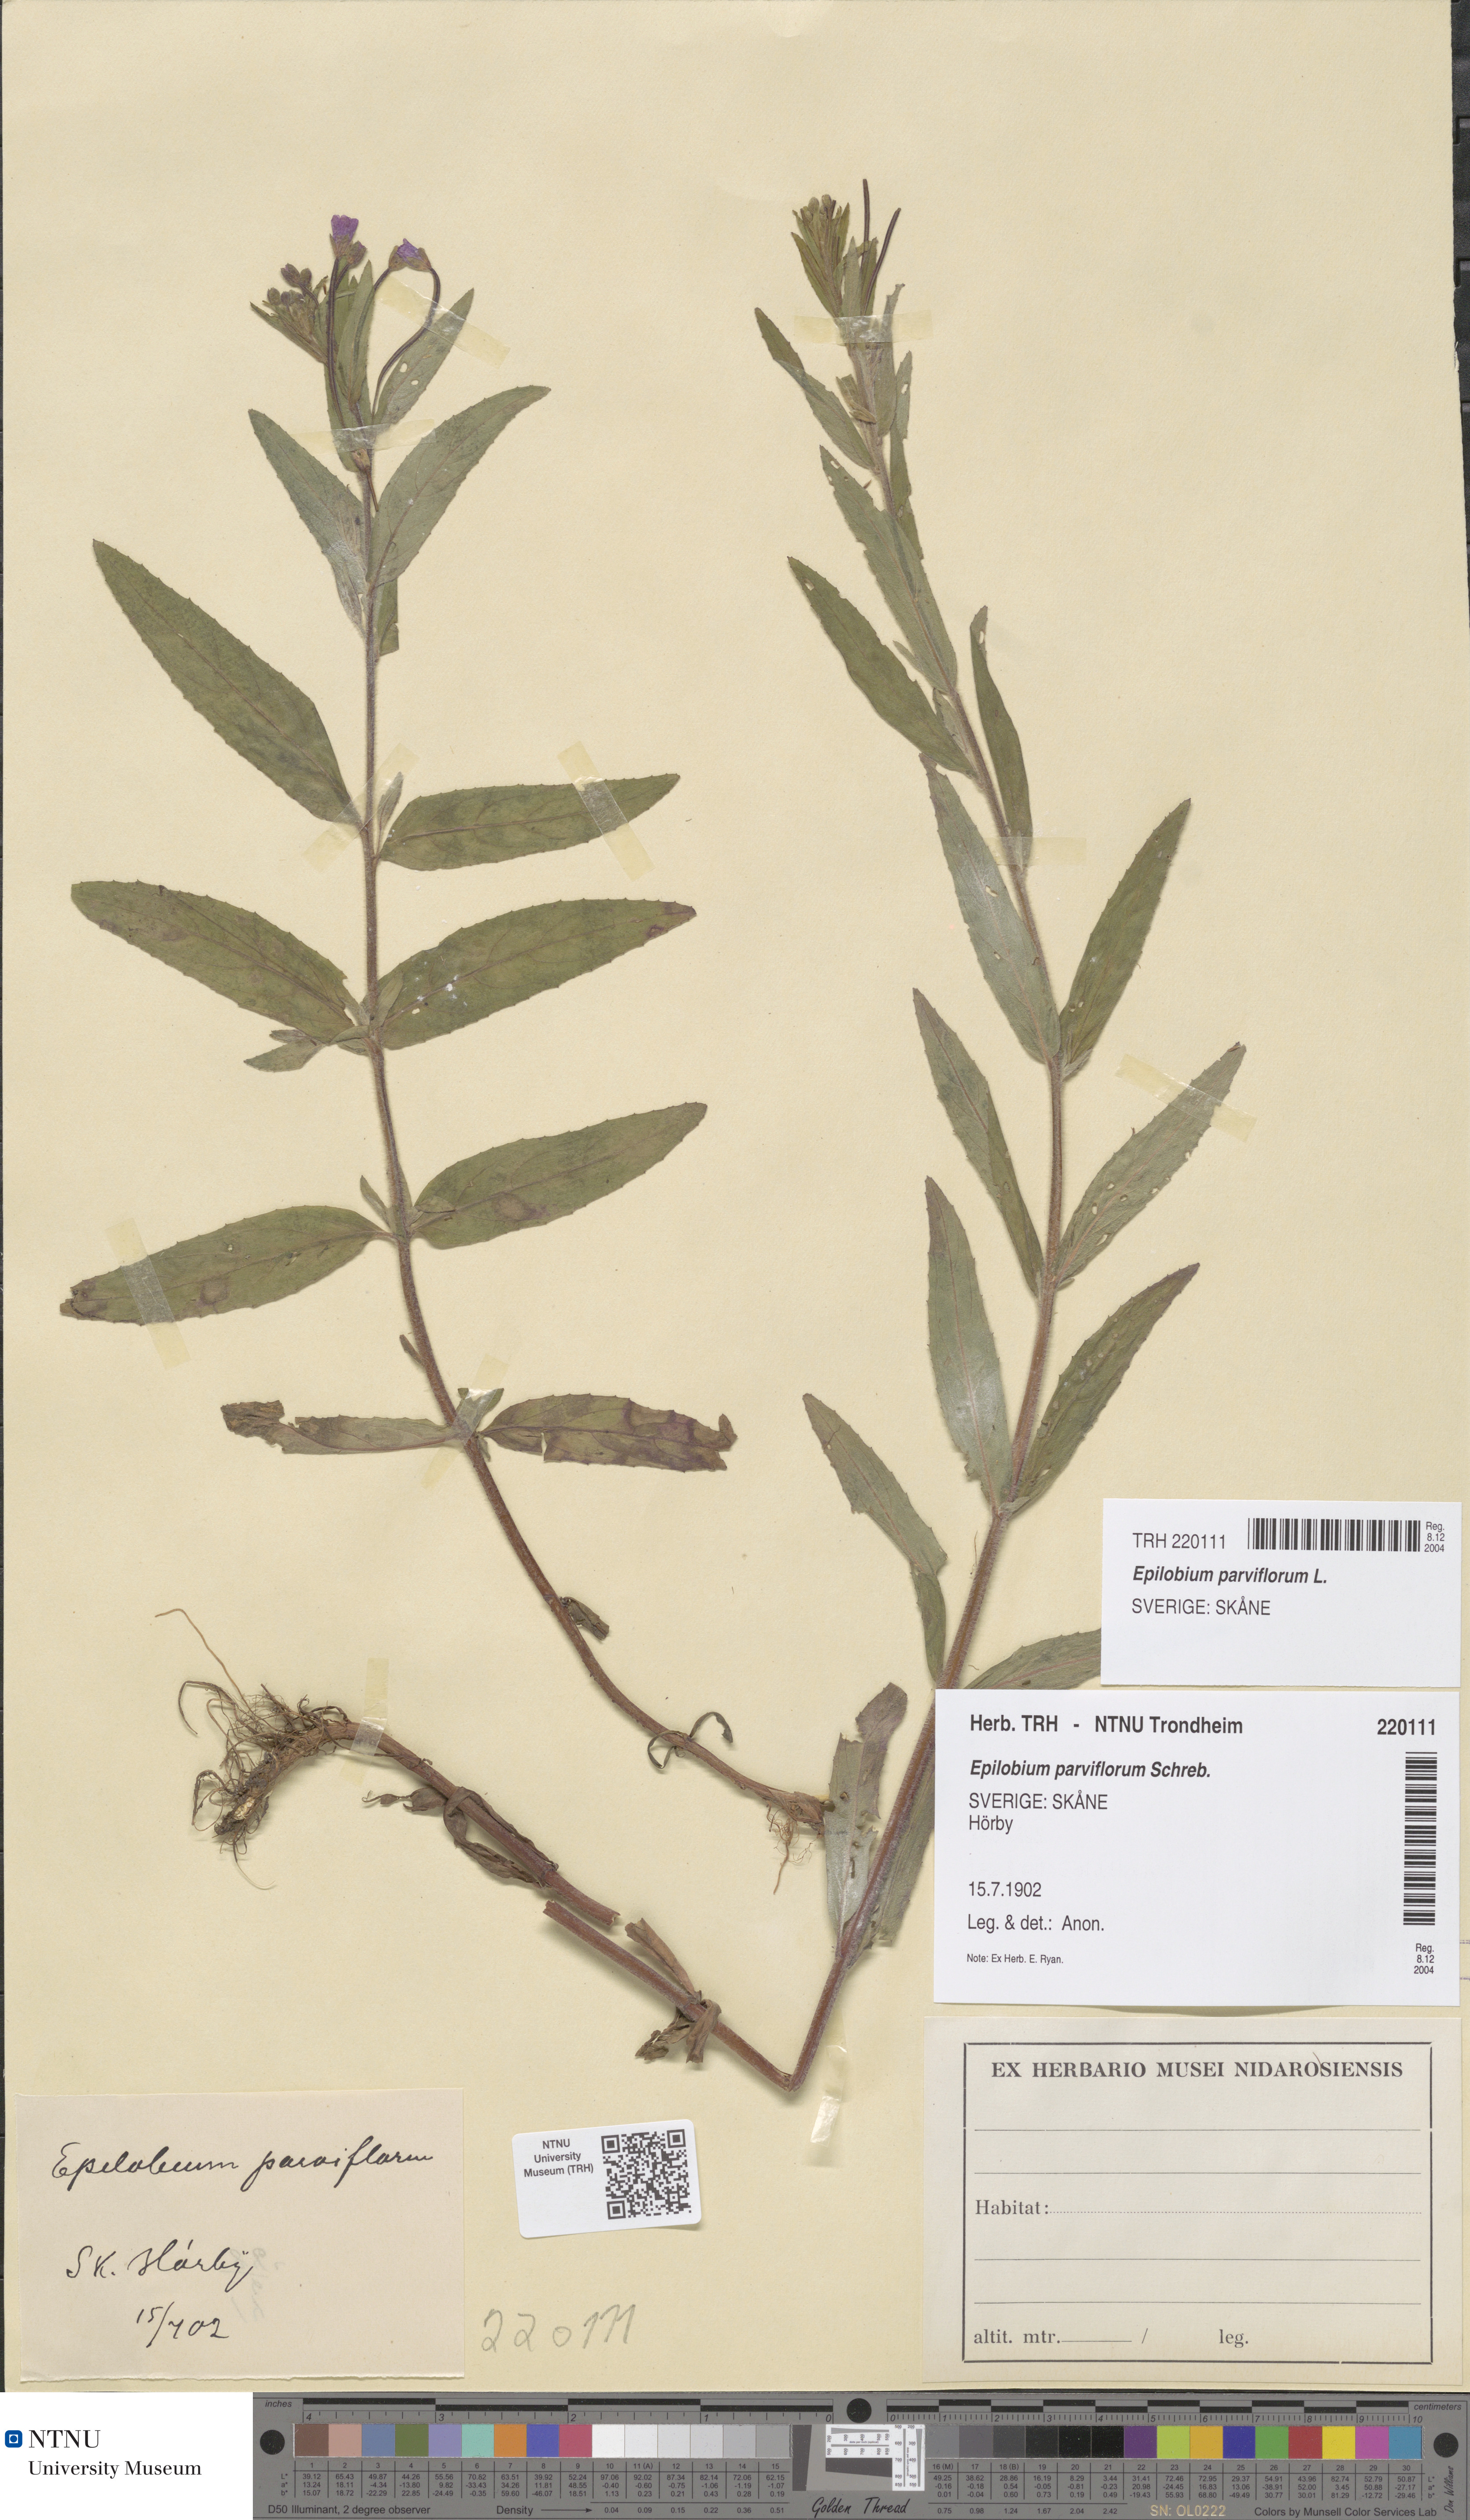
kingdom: Plantae
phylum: Tracheophyta
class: Magnoliopsida
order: Myrtales
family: Onagraceae
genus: Epilobium
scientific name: Epilobium parviflorum
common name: Hoary willowherb
